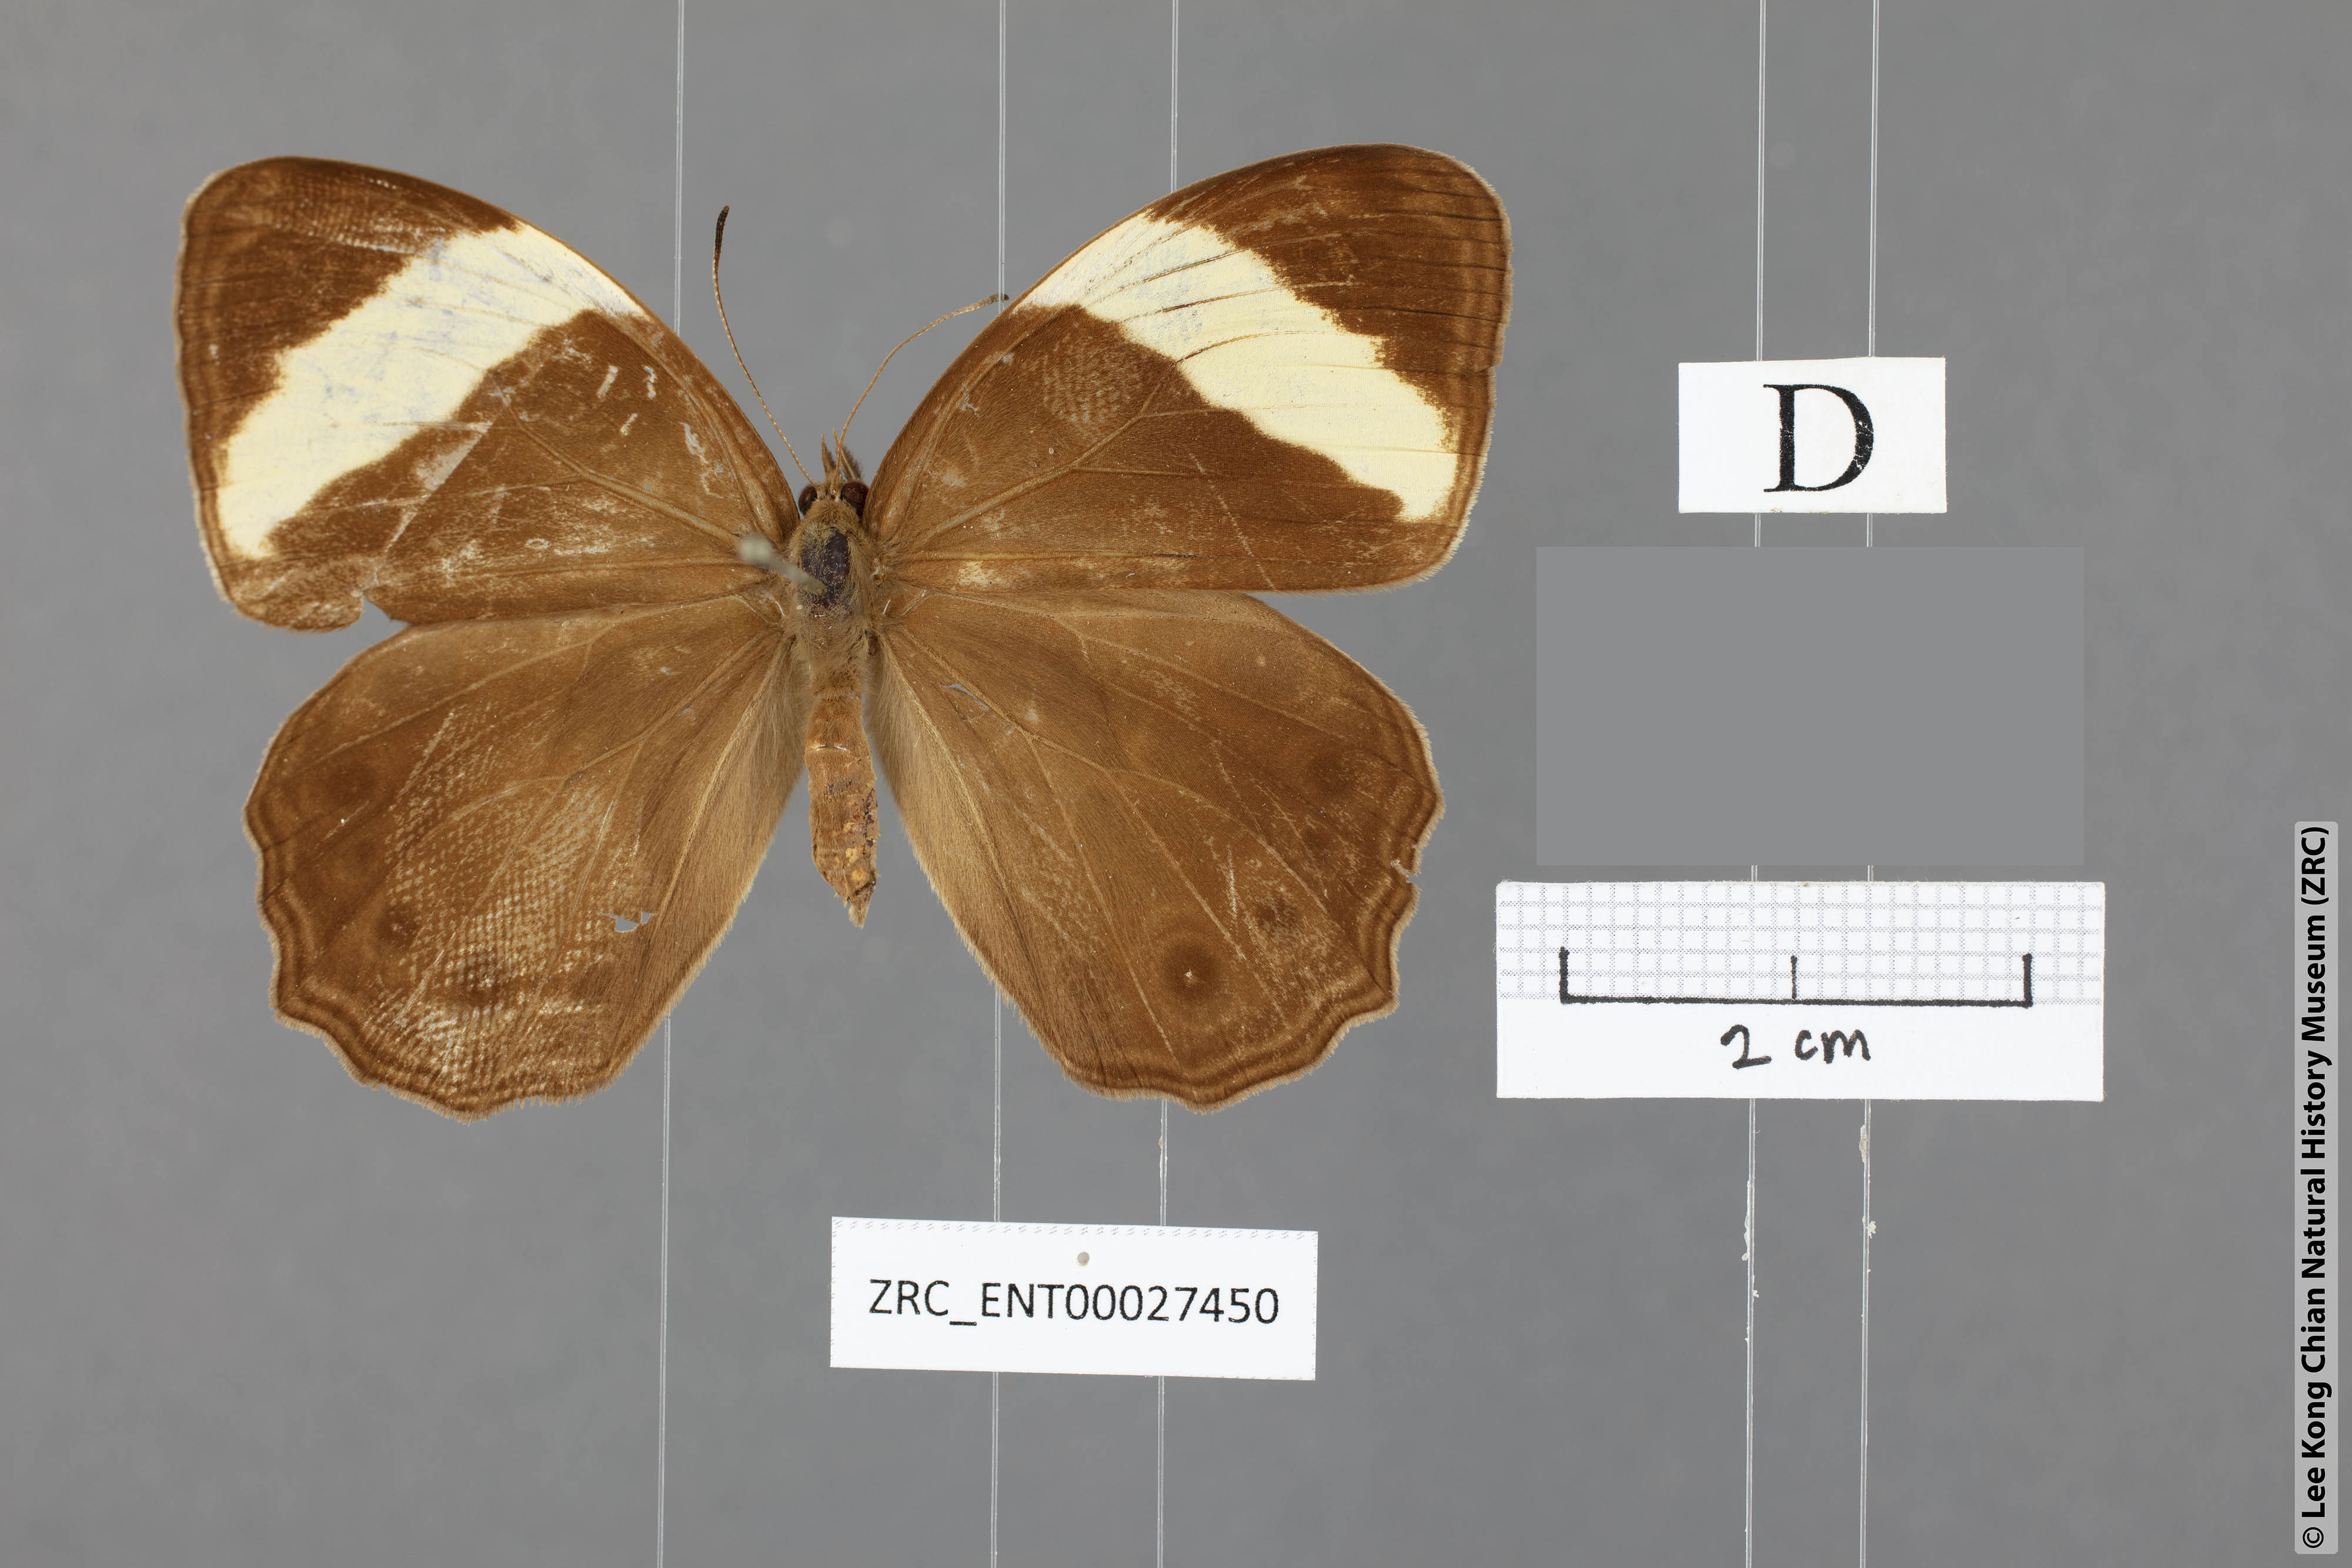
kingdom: Animalia
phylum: Arthropoda
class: Insecta
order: Lepidoptera
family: Nymphalidae
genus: Lethe
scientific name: Lethe verma
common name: Straight-banded treebrown
